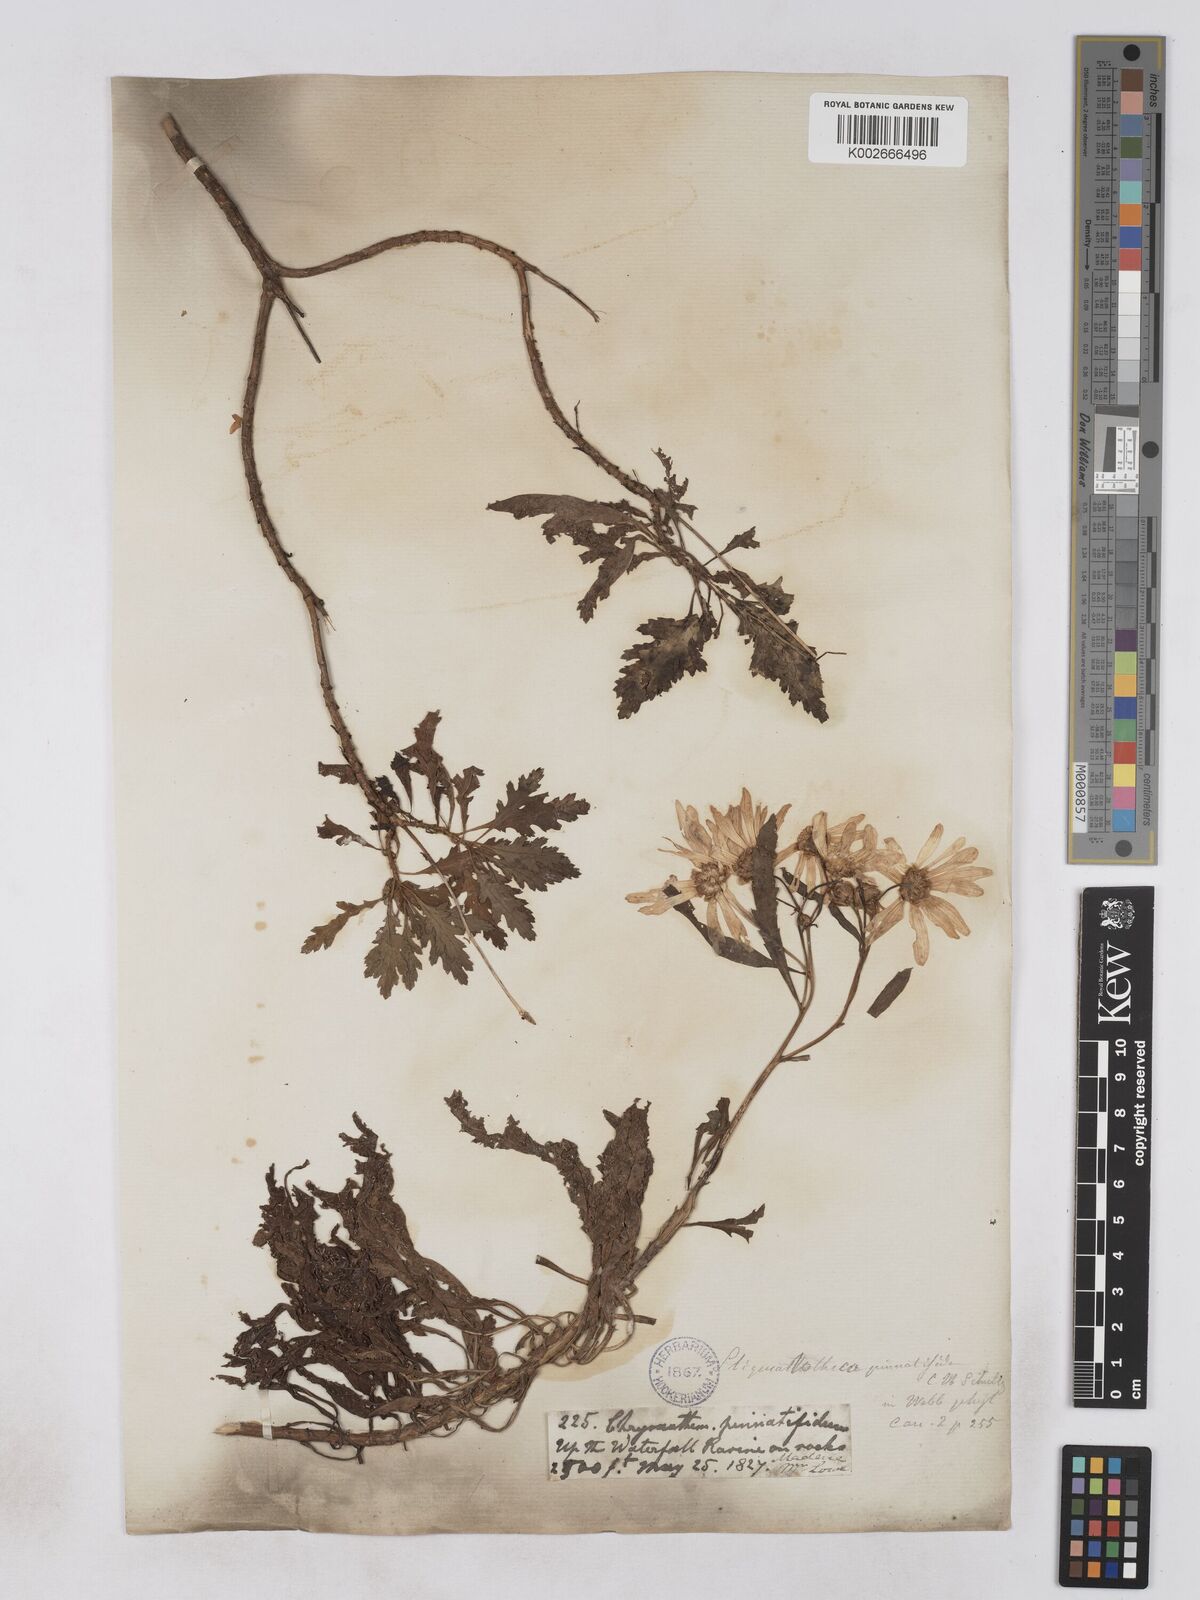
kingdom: Plantae
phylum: Tracheophyta
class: Magnoliopsida
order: Asterales
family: Asteraceae
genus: Argyranthemum
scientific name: Argyranthemum pinnatifidum
